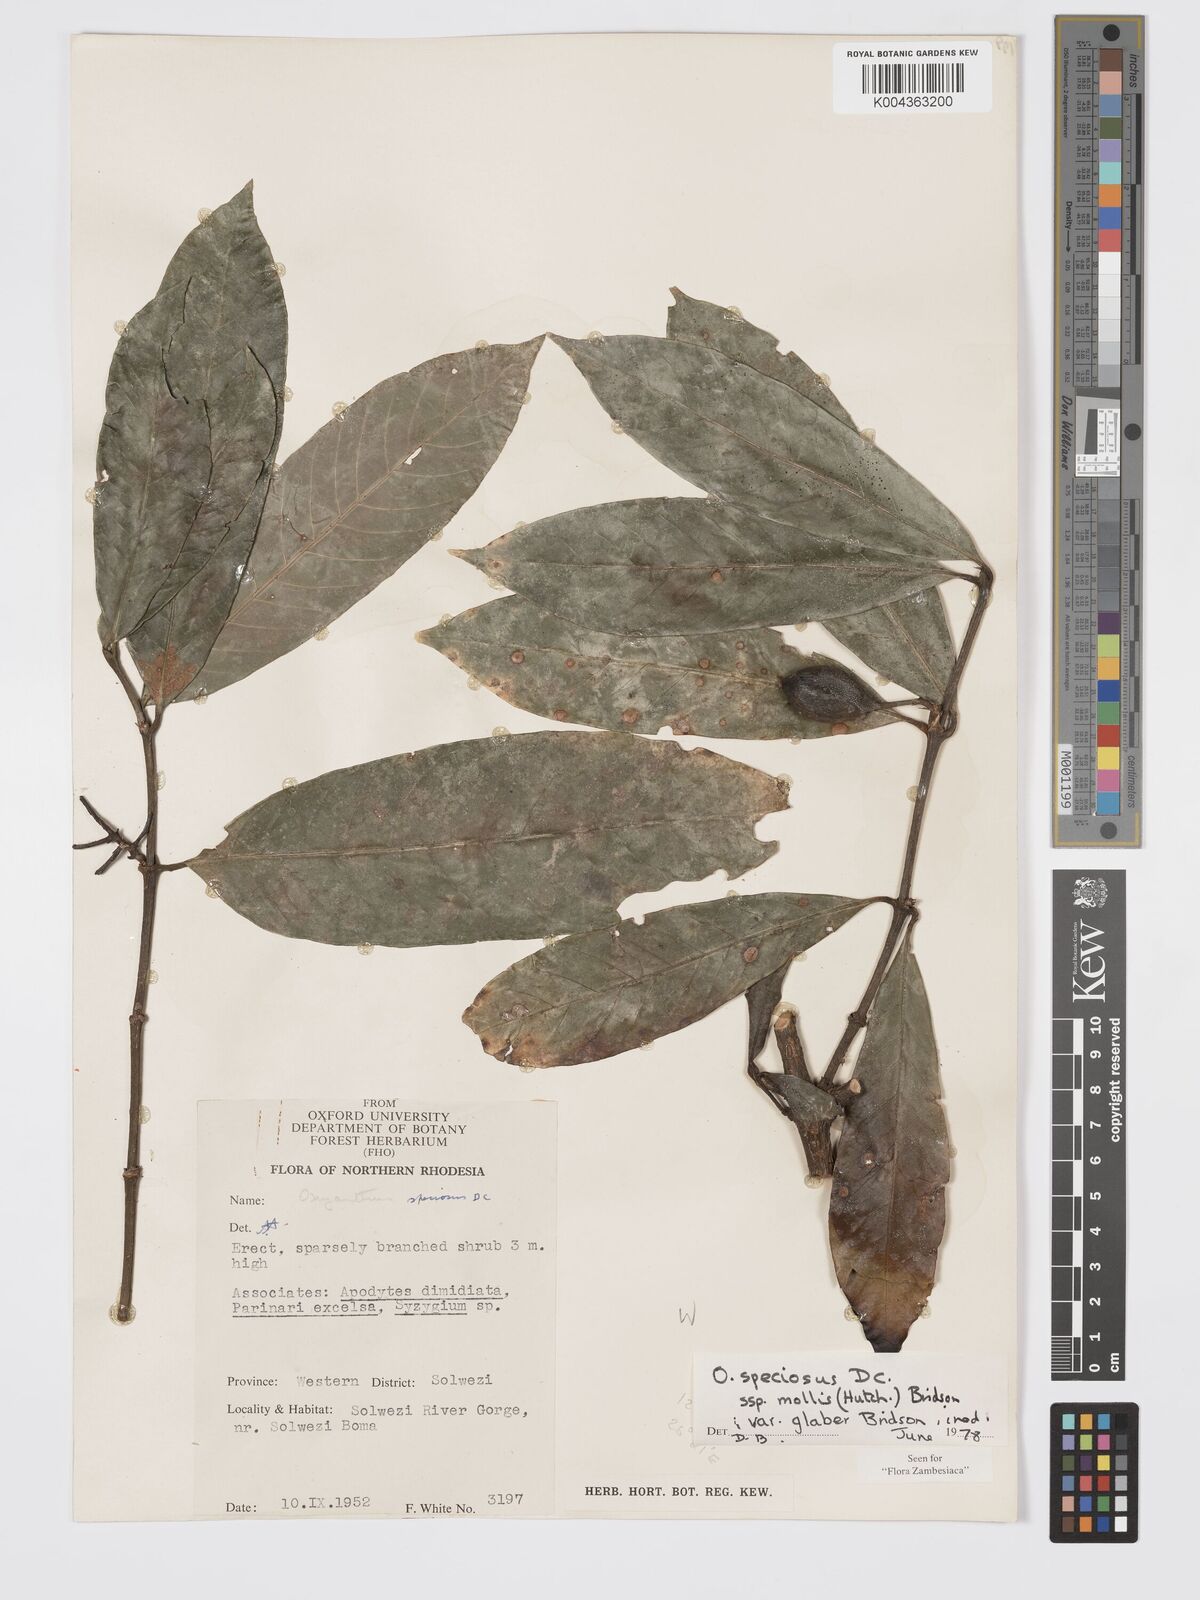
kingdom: Plantae
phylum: Tracheophyta
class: Magnoliopsida
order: Gentianales
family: Rubiaceae
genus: Oxyanthus
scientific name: Oxyanthus speciosus
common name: Whipstick loquat
